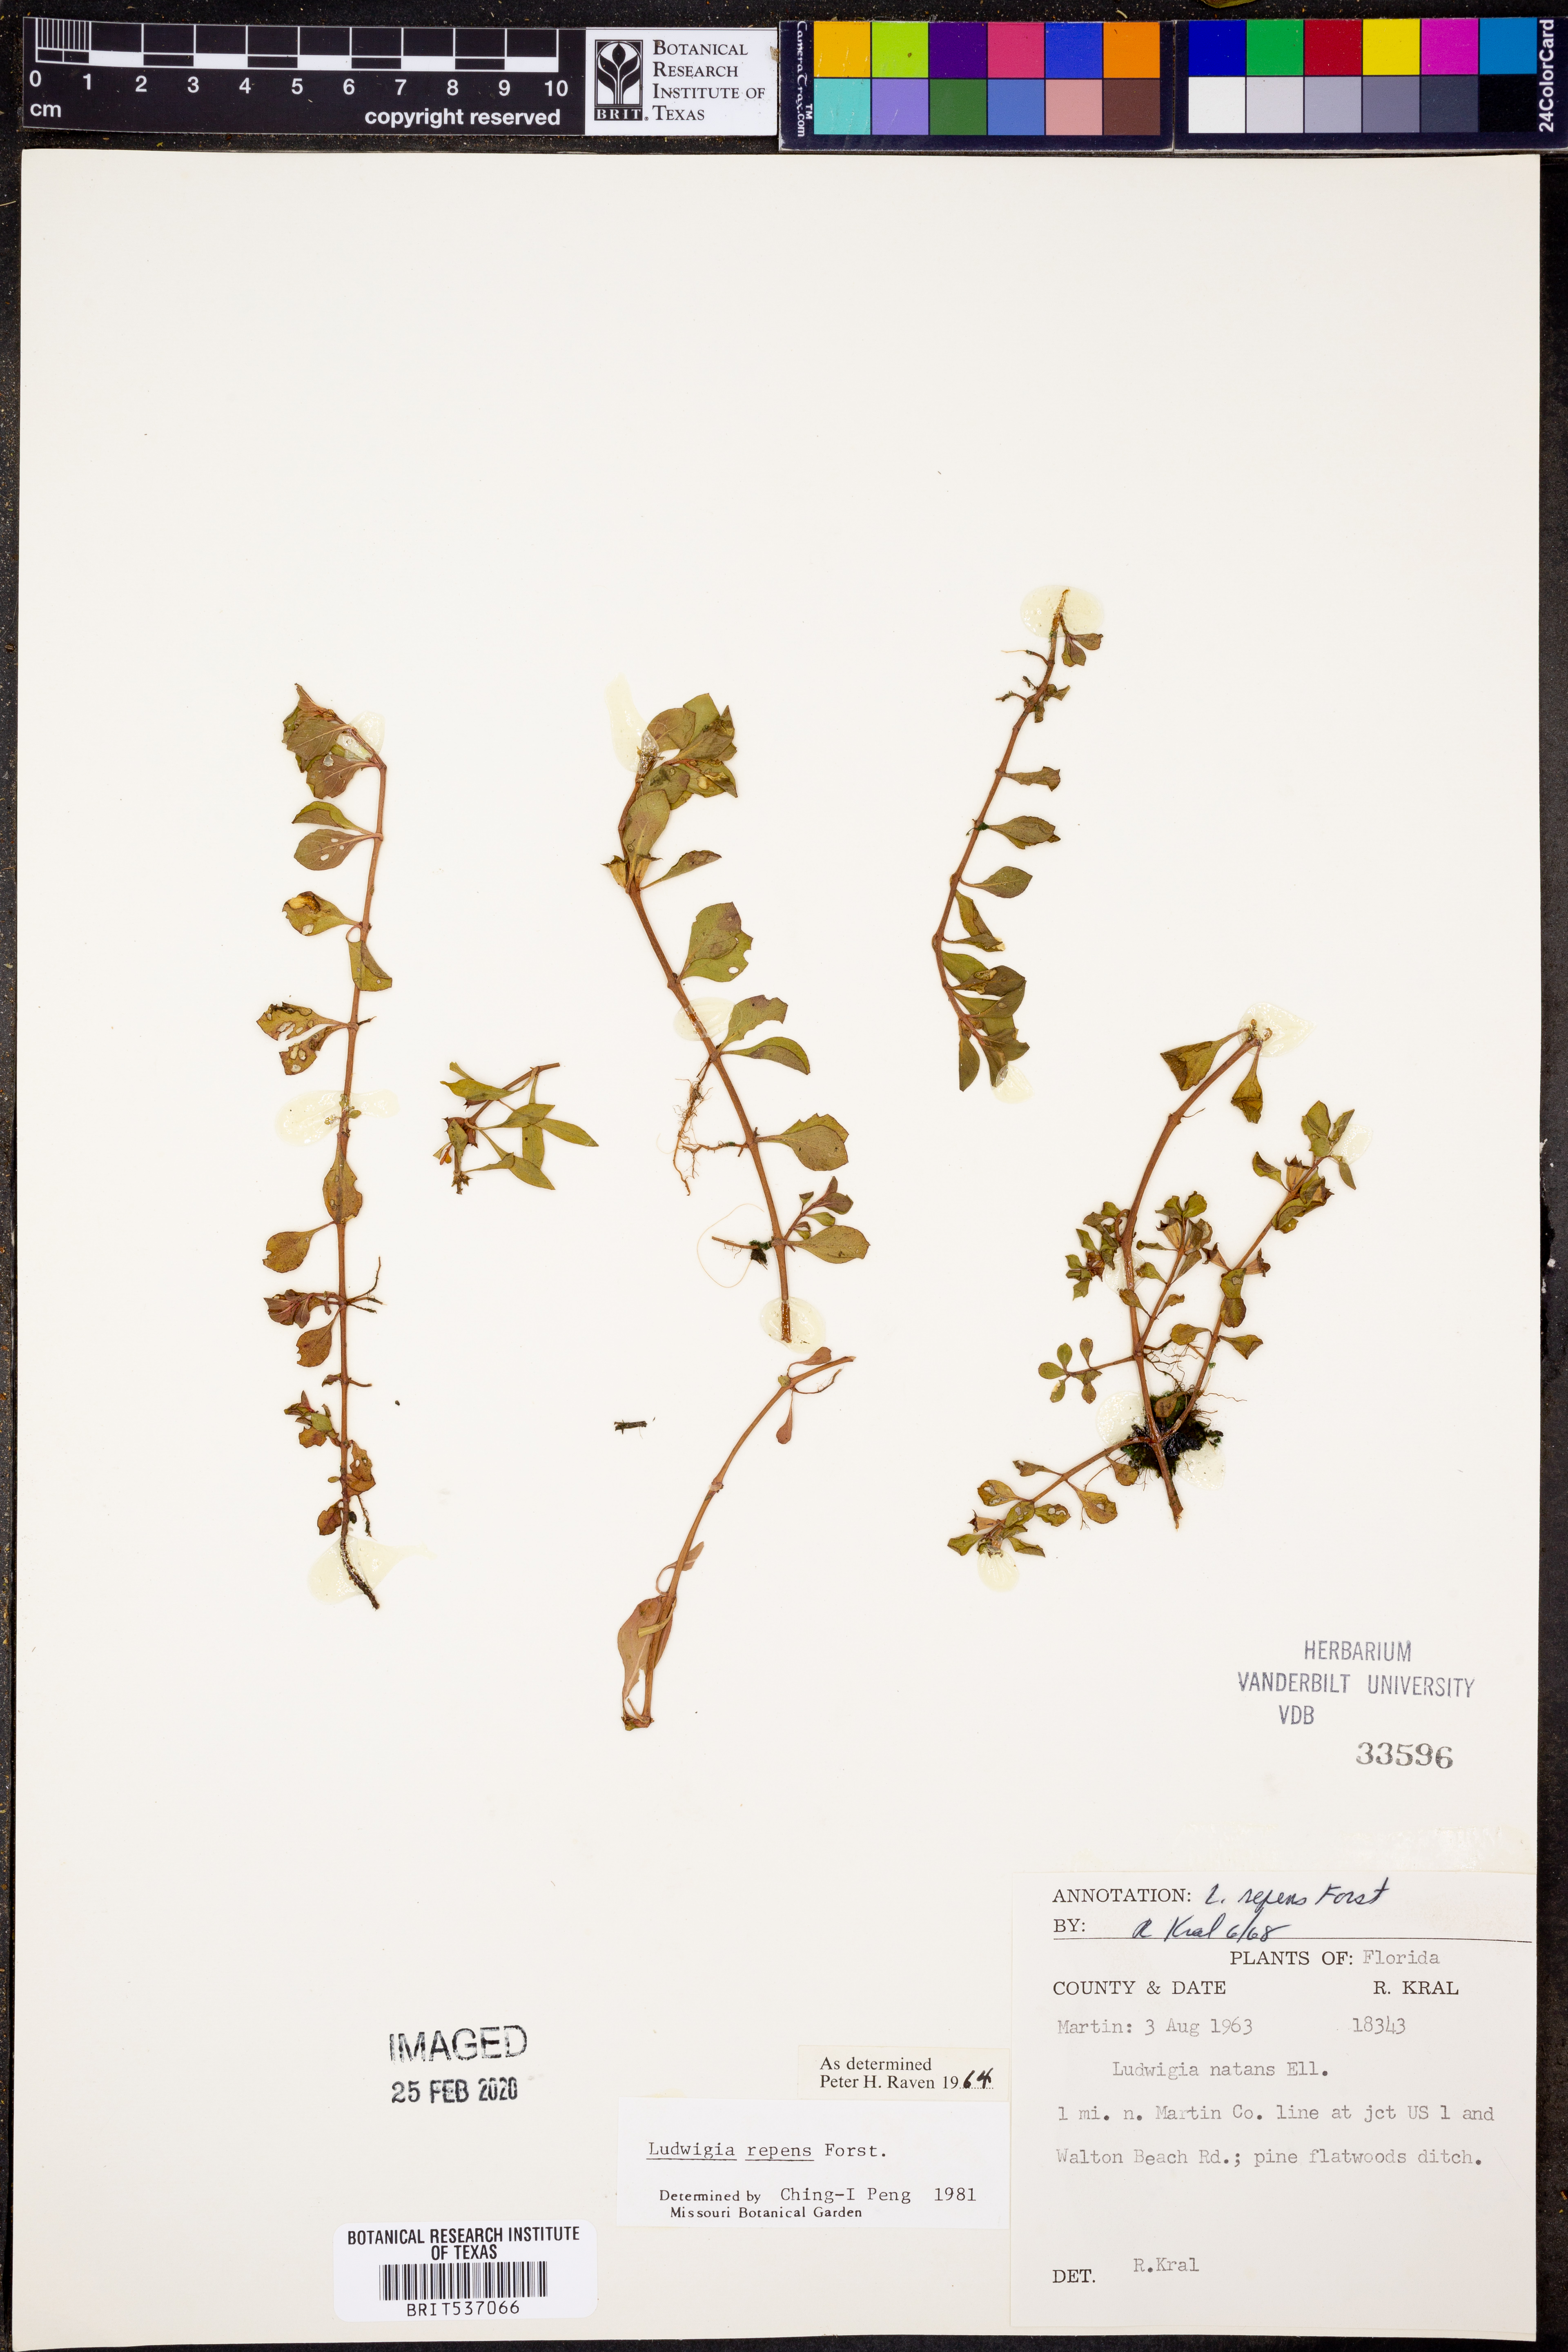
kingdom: Plantae
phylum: Tracheophyta
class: Magnoliopsida
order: Myrtales
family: Onagraceae
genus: Ludwigia
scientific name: Ludwigia repens
